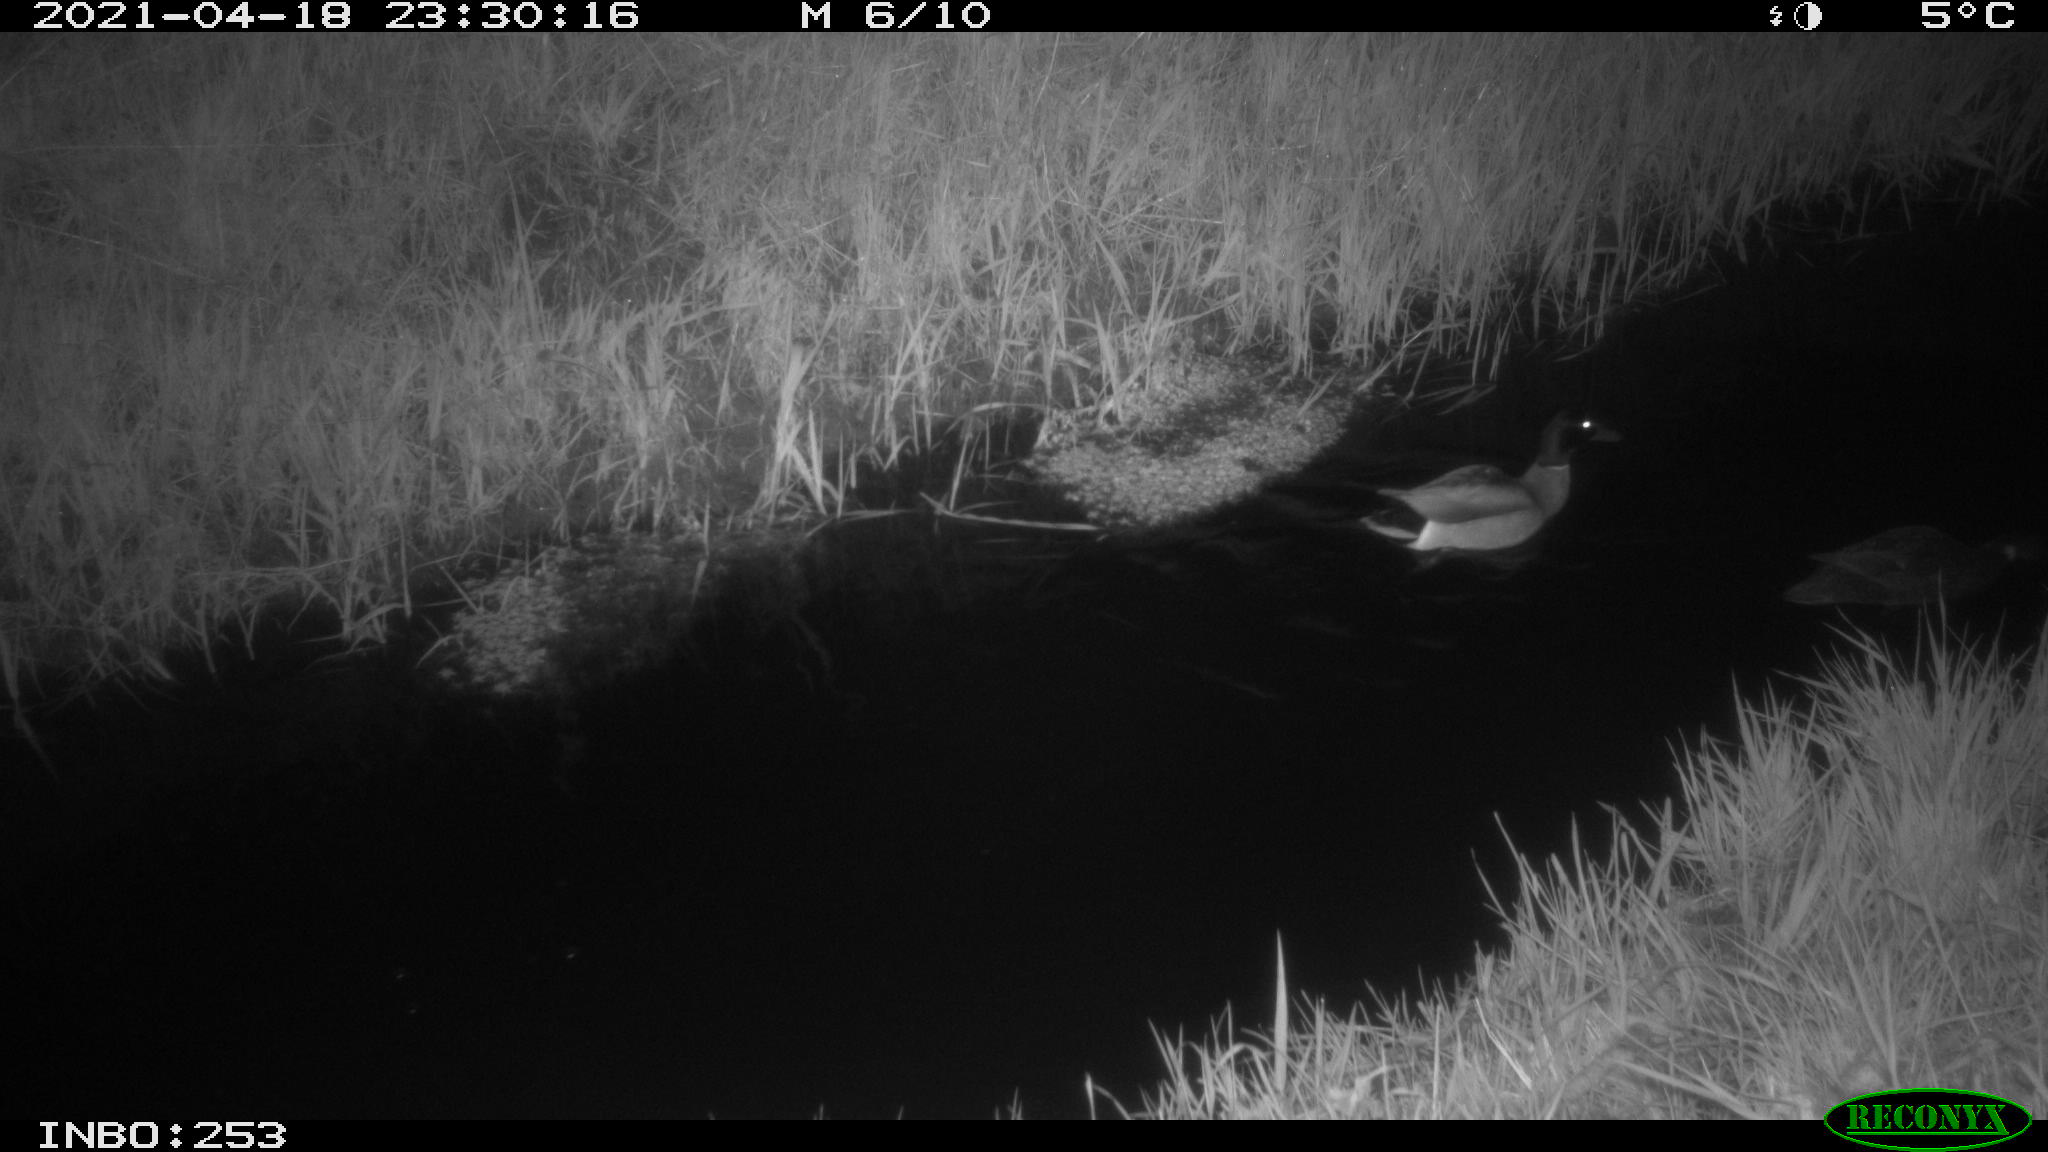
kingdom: Animalia
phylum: Chordata
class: Aves
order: Anseriformes
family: Anatidae
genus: Anas
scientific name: Anas platyrhynchos
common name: Mallard
